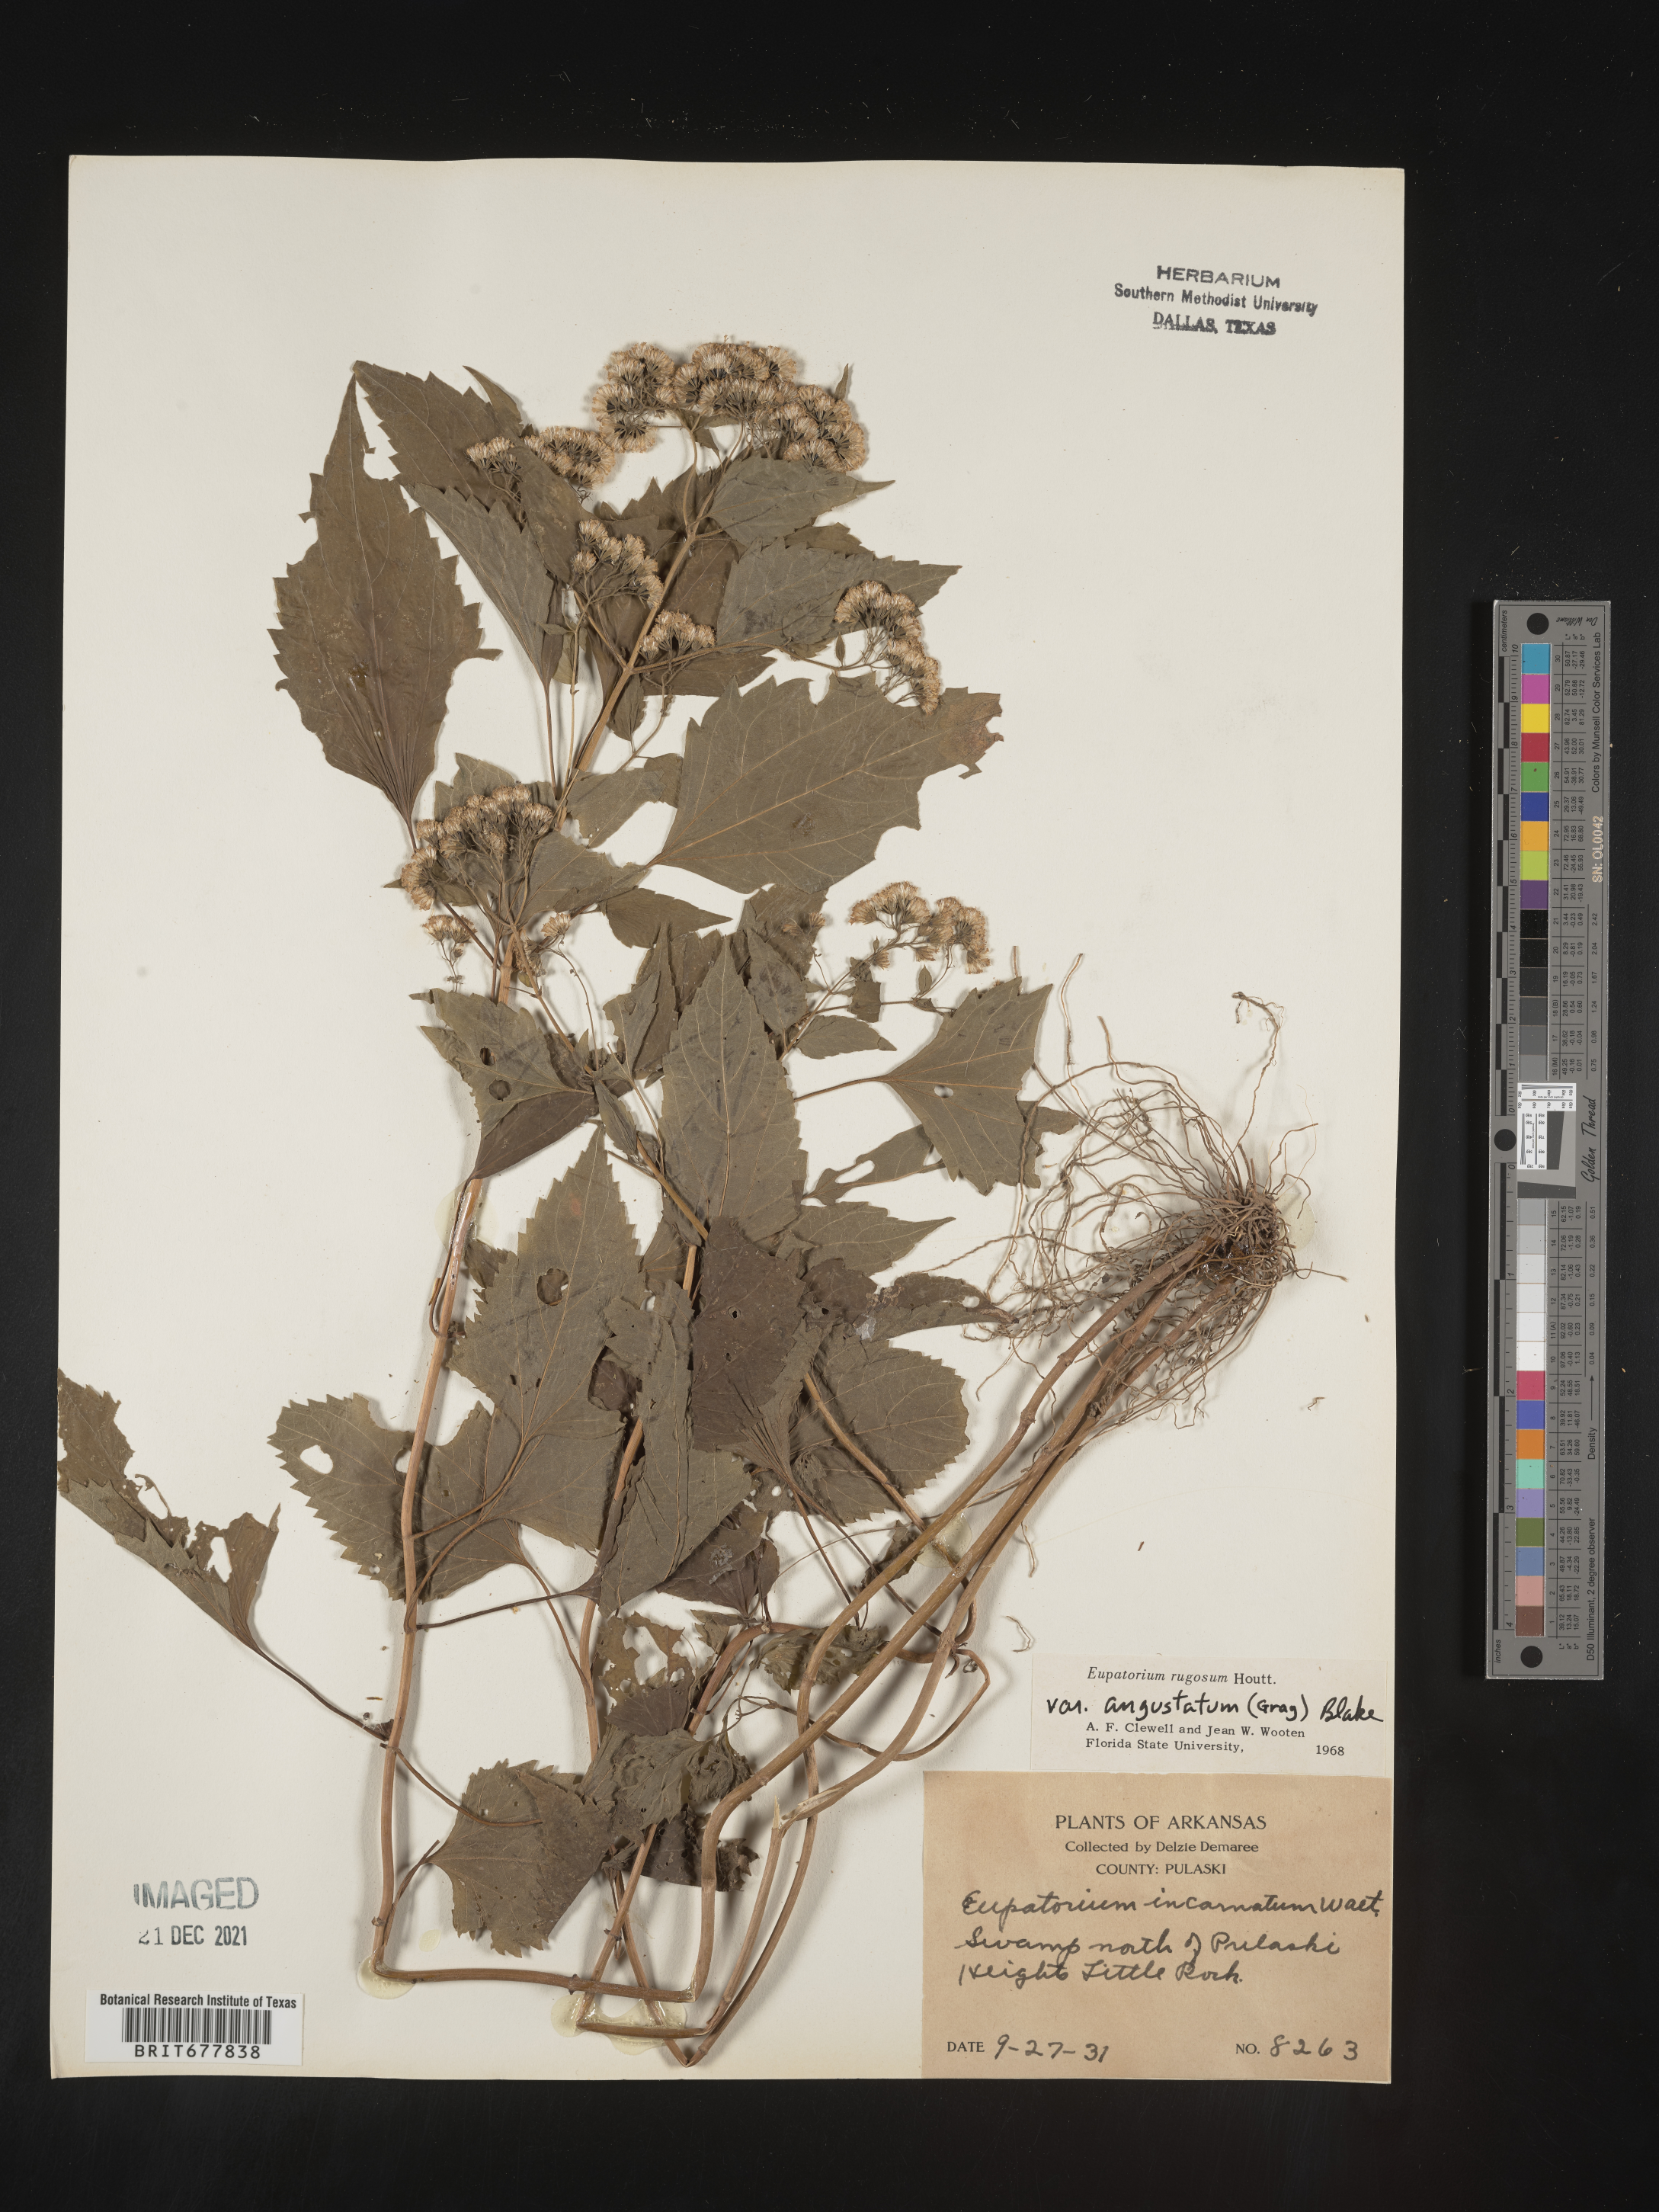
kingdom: Plantae
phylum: Tracheophyta
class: Magnoliopsida
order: Asterales
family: Asteraceae
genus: Ageratina
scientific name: Ageratina altissima
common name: White snakeroot
